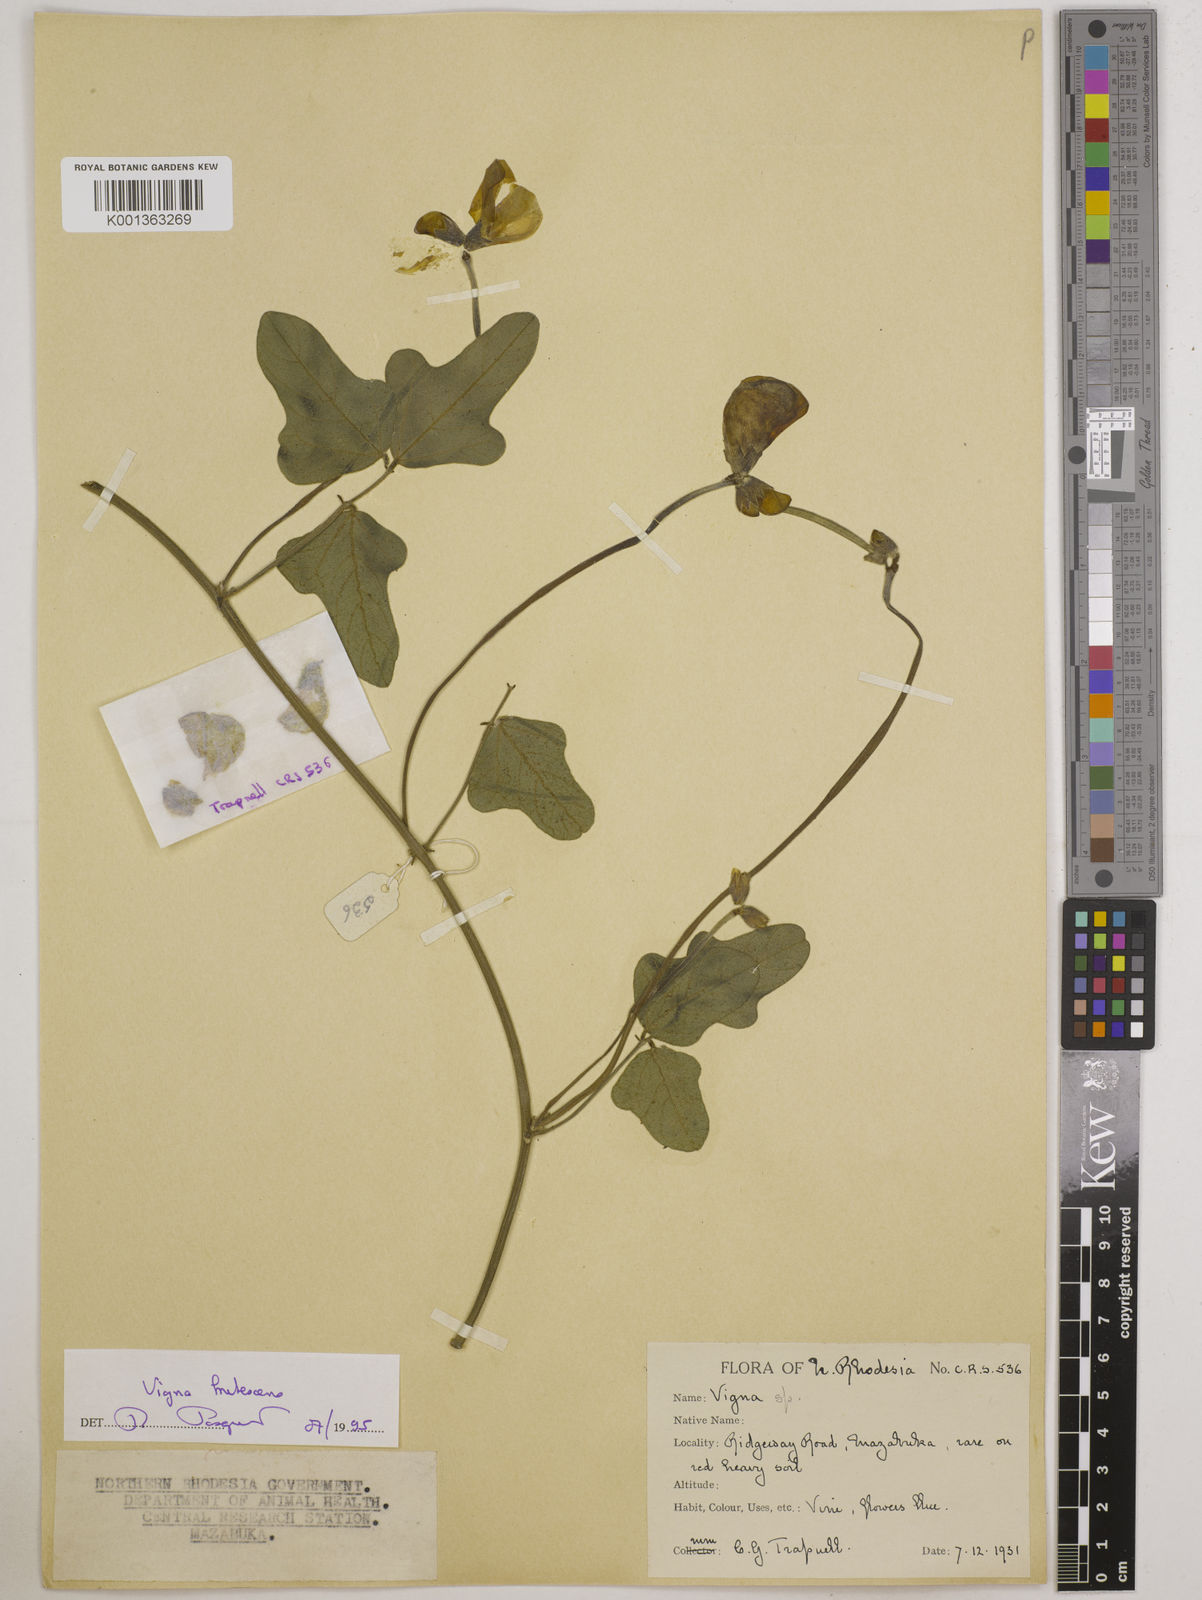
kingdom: Plantae
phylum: Tracheophyta
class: Magnoliopsida
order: Fabales
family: Fabaceae
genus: Vigna
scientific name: Vigna
